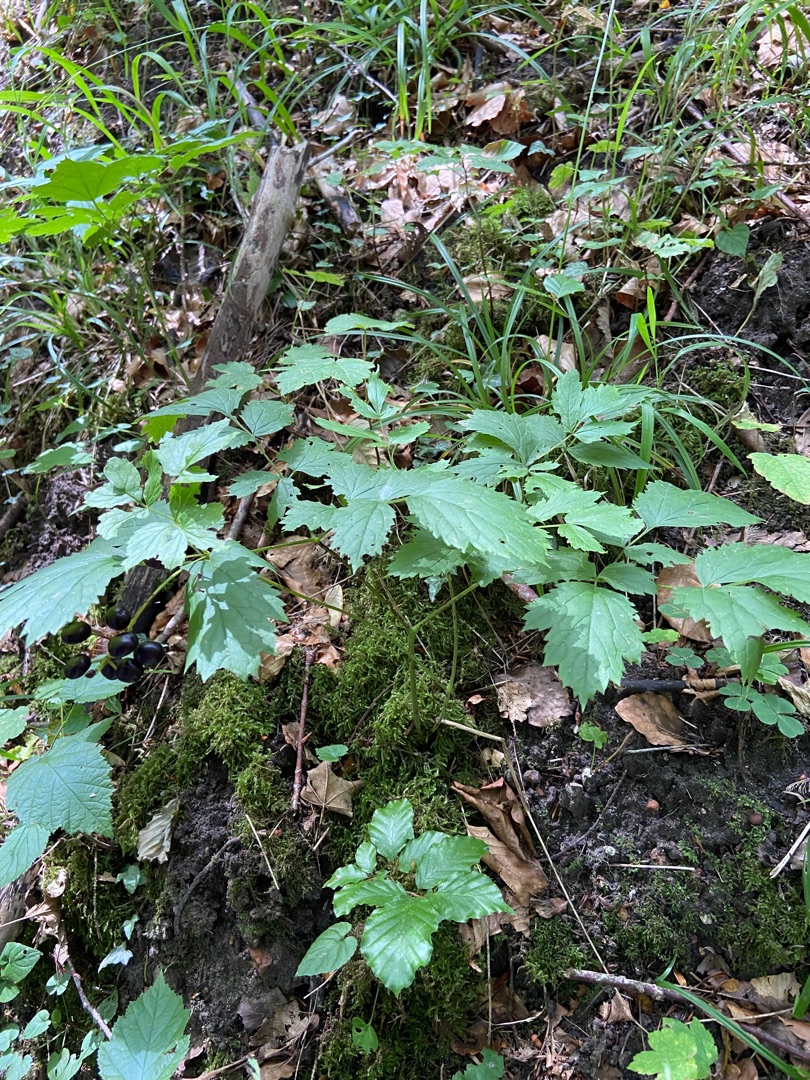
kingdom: Plantae
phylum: Tracheophyta
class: Magnoliopsida
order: Ranunculales
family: Ranunculaceae
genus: Actaea
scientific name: Actaea spicata
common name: Druemunke
